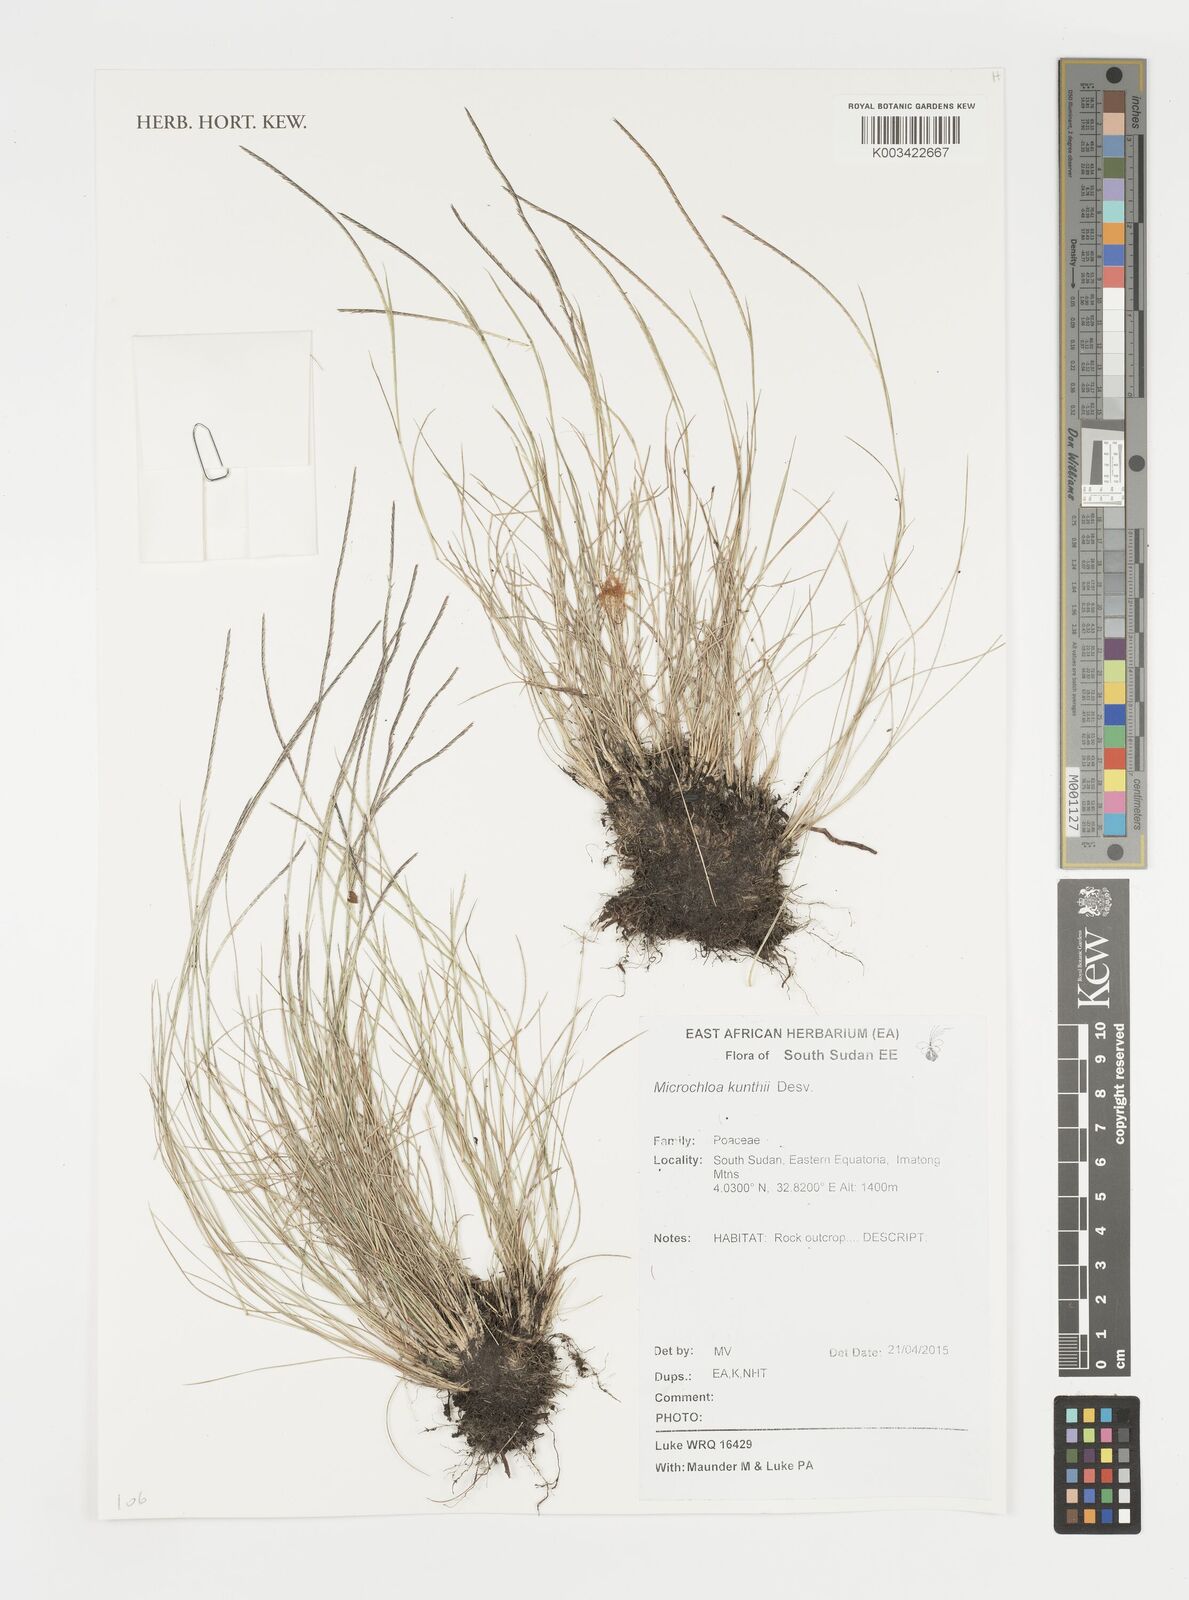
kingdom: Plantae
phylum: Tracheophyta
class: Liliopsida
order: Poales
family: Poaceae
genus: Microchloa
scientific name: Microchloa kunthii
